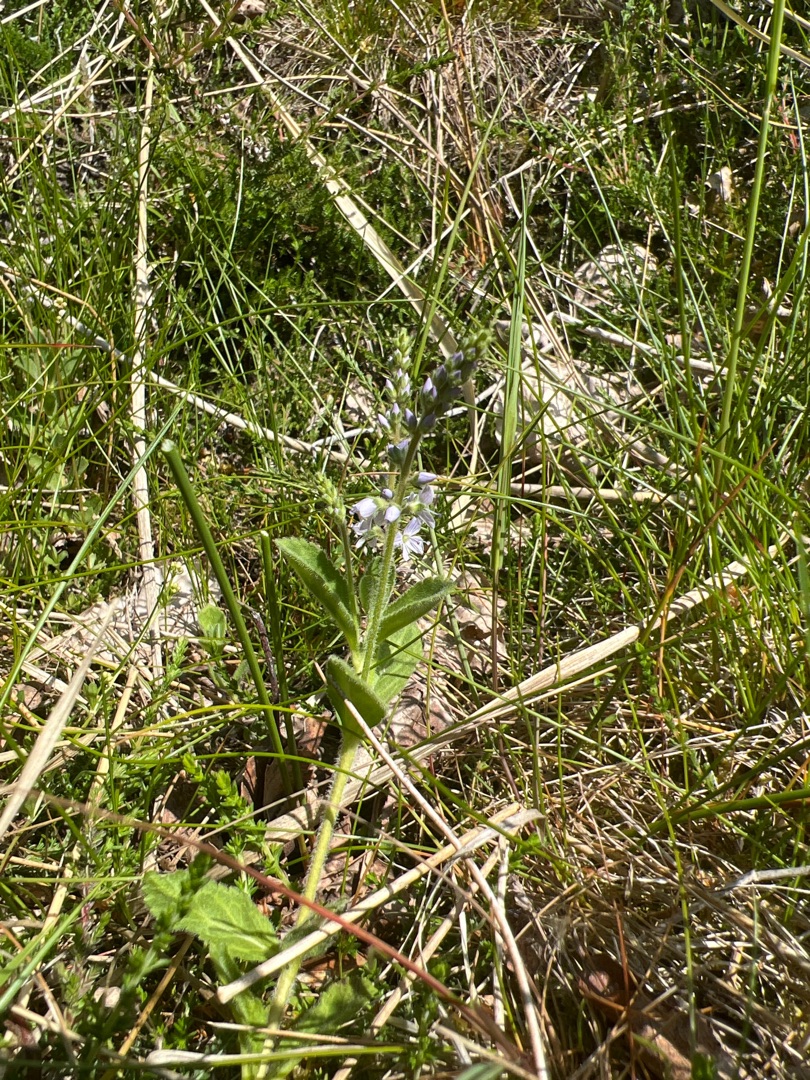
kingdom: Plantae
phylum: Tracheophyta
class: Magnoliopsida
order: Lamiales
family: Plantaginaceae
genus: Veronica
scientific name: Veronica officinalis
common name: Læge-ærenpris
